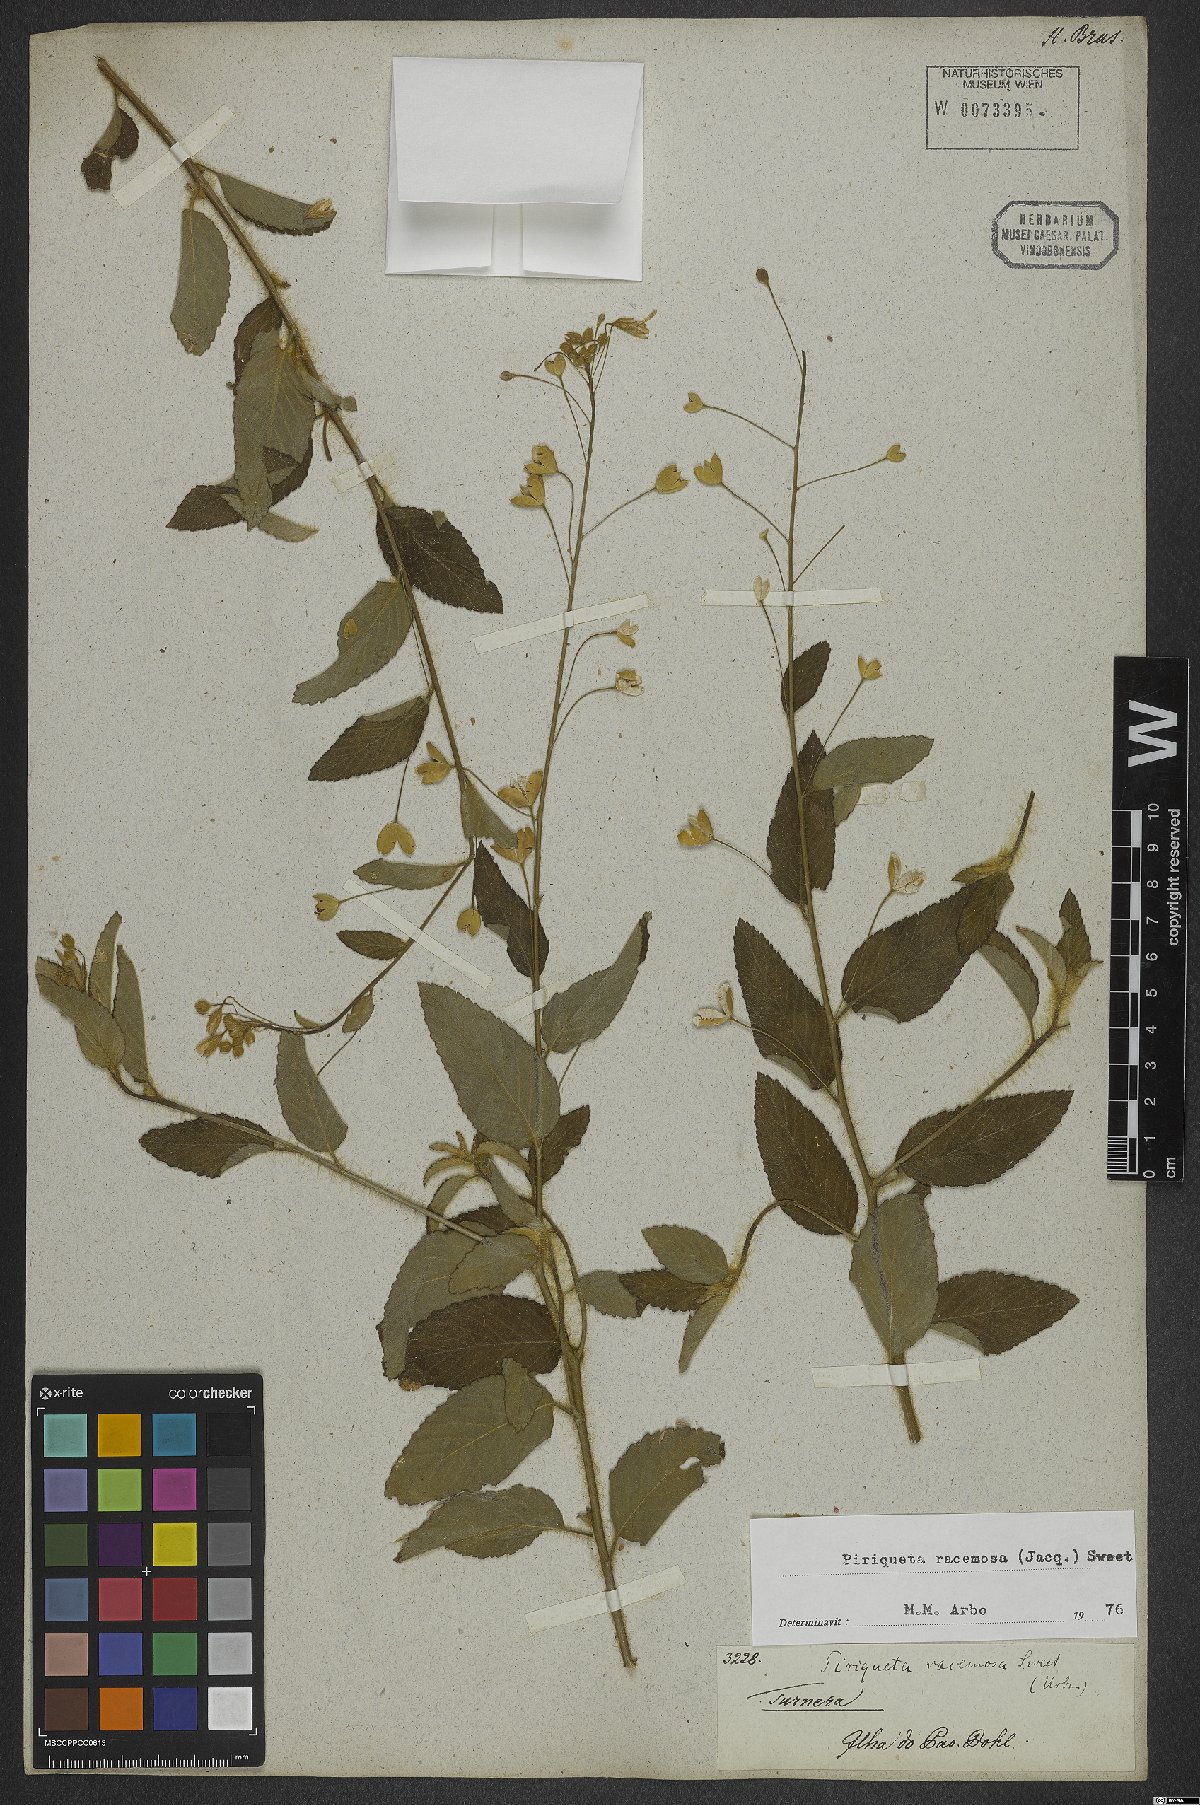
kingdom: Plantae
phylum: Tracheophyta
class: Magnoliopsida
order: Malpighiales
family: Turneraceae
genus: Piriqueta
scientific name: Piriqueta racemosa
